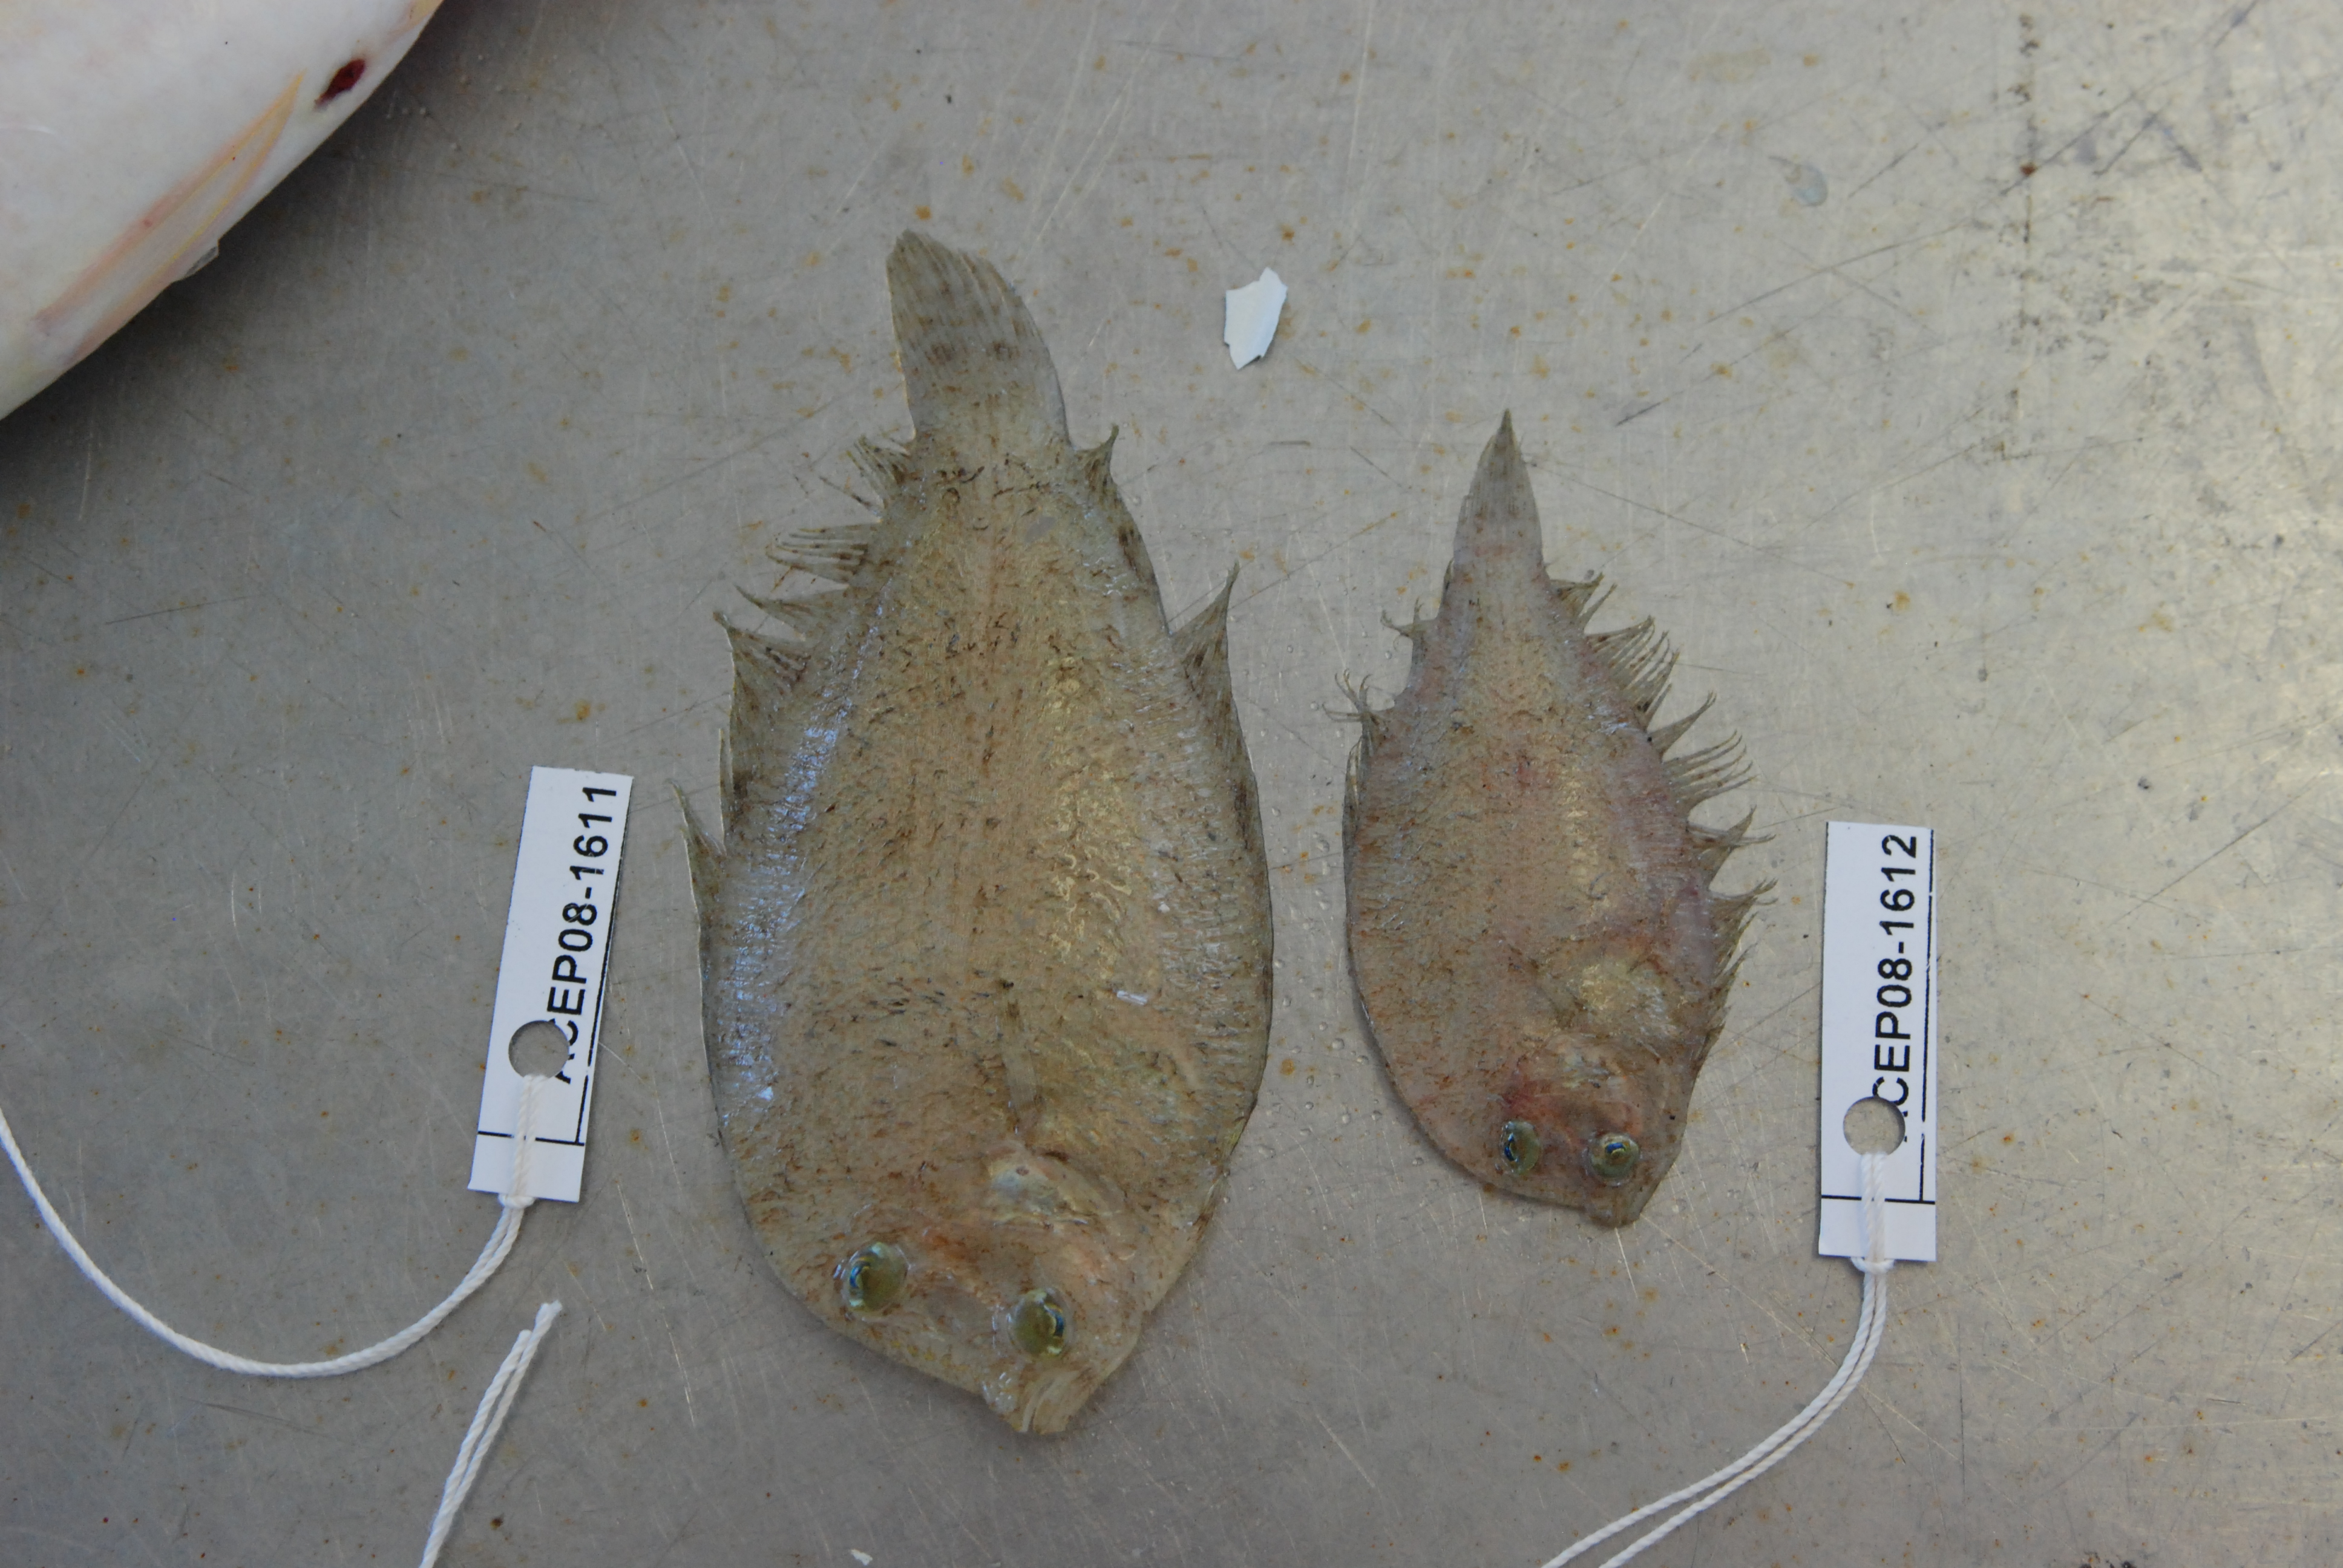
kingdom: Animalia
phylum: Chordata
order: Pleuronectiformes
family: Bothidae
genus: Crossorhombus
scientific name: Crossorhombus valderostratus
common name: Broadbrow flounder
